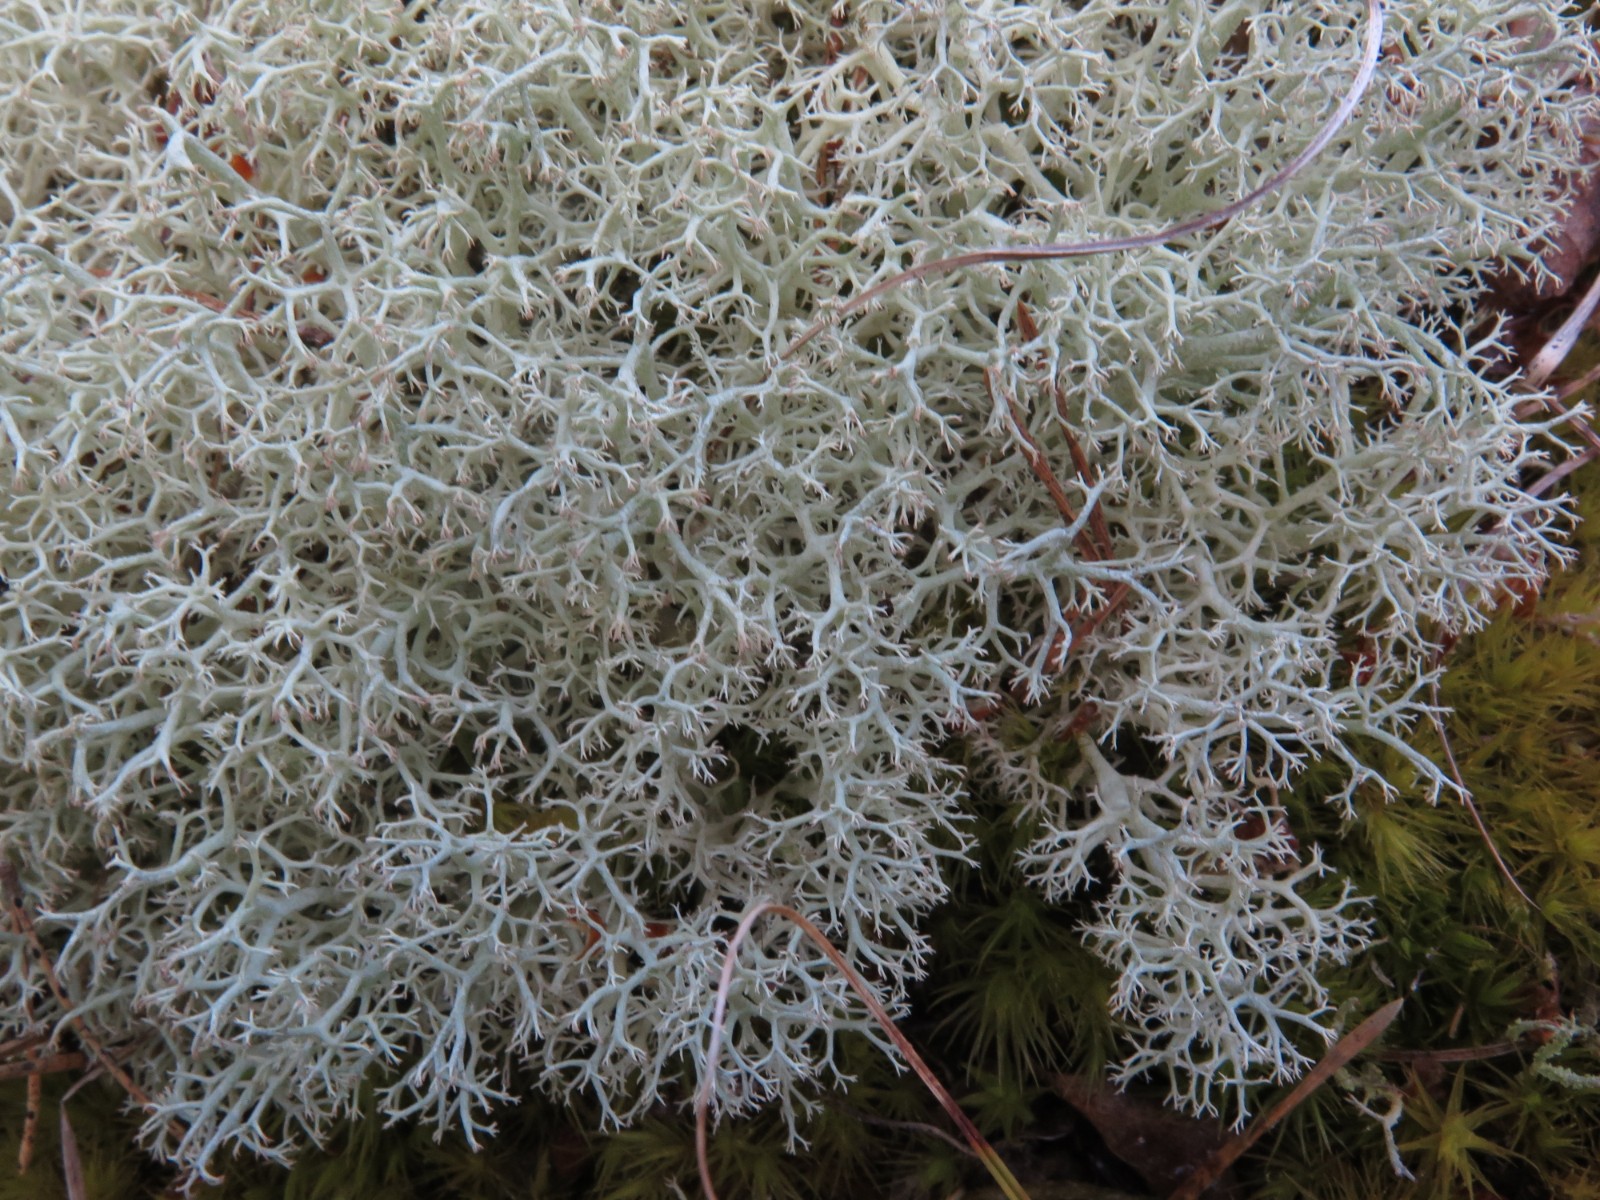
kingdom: Fungi
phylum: Ascomycota
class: Lecanoromycetes
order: Lecanorales
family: Cladoniaceae
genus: Cladonia
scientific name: Cladonia portentosa
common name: hede-rensdyrlav
